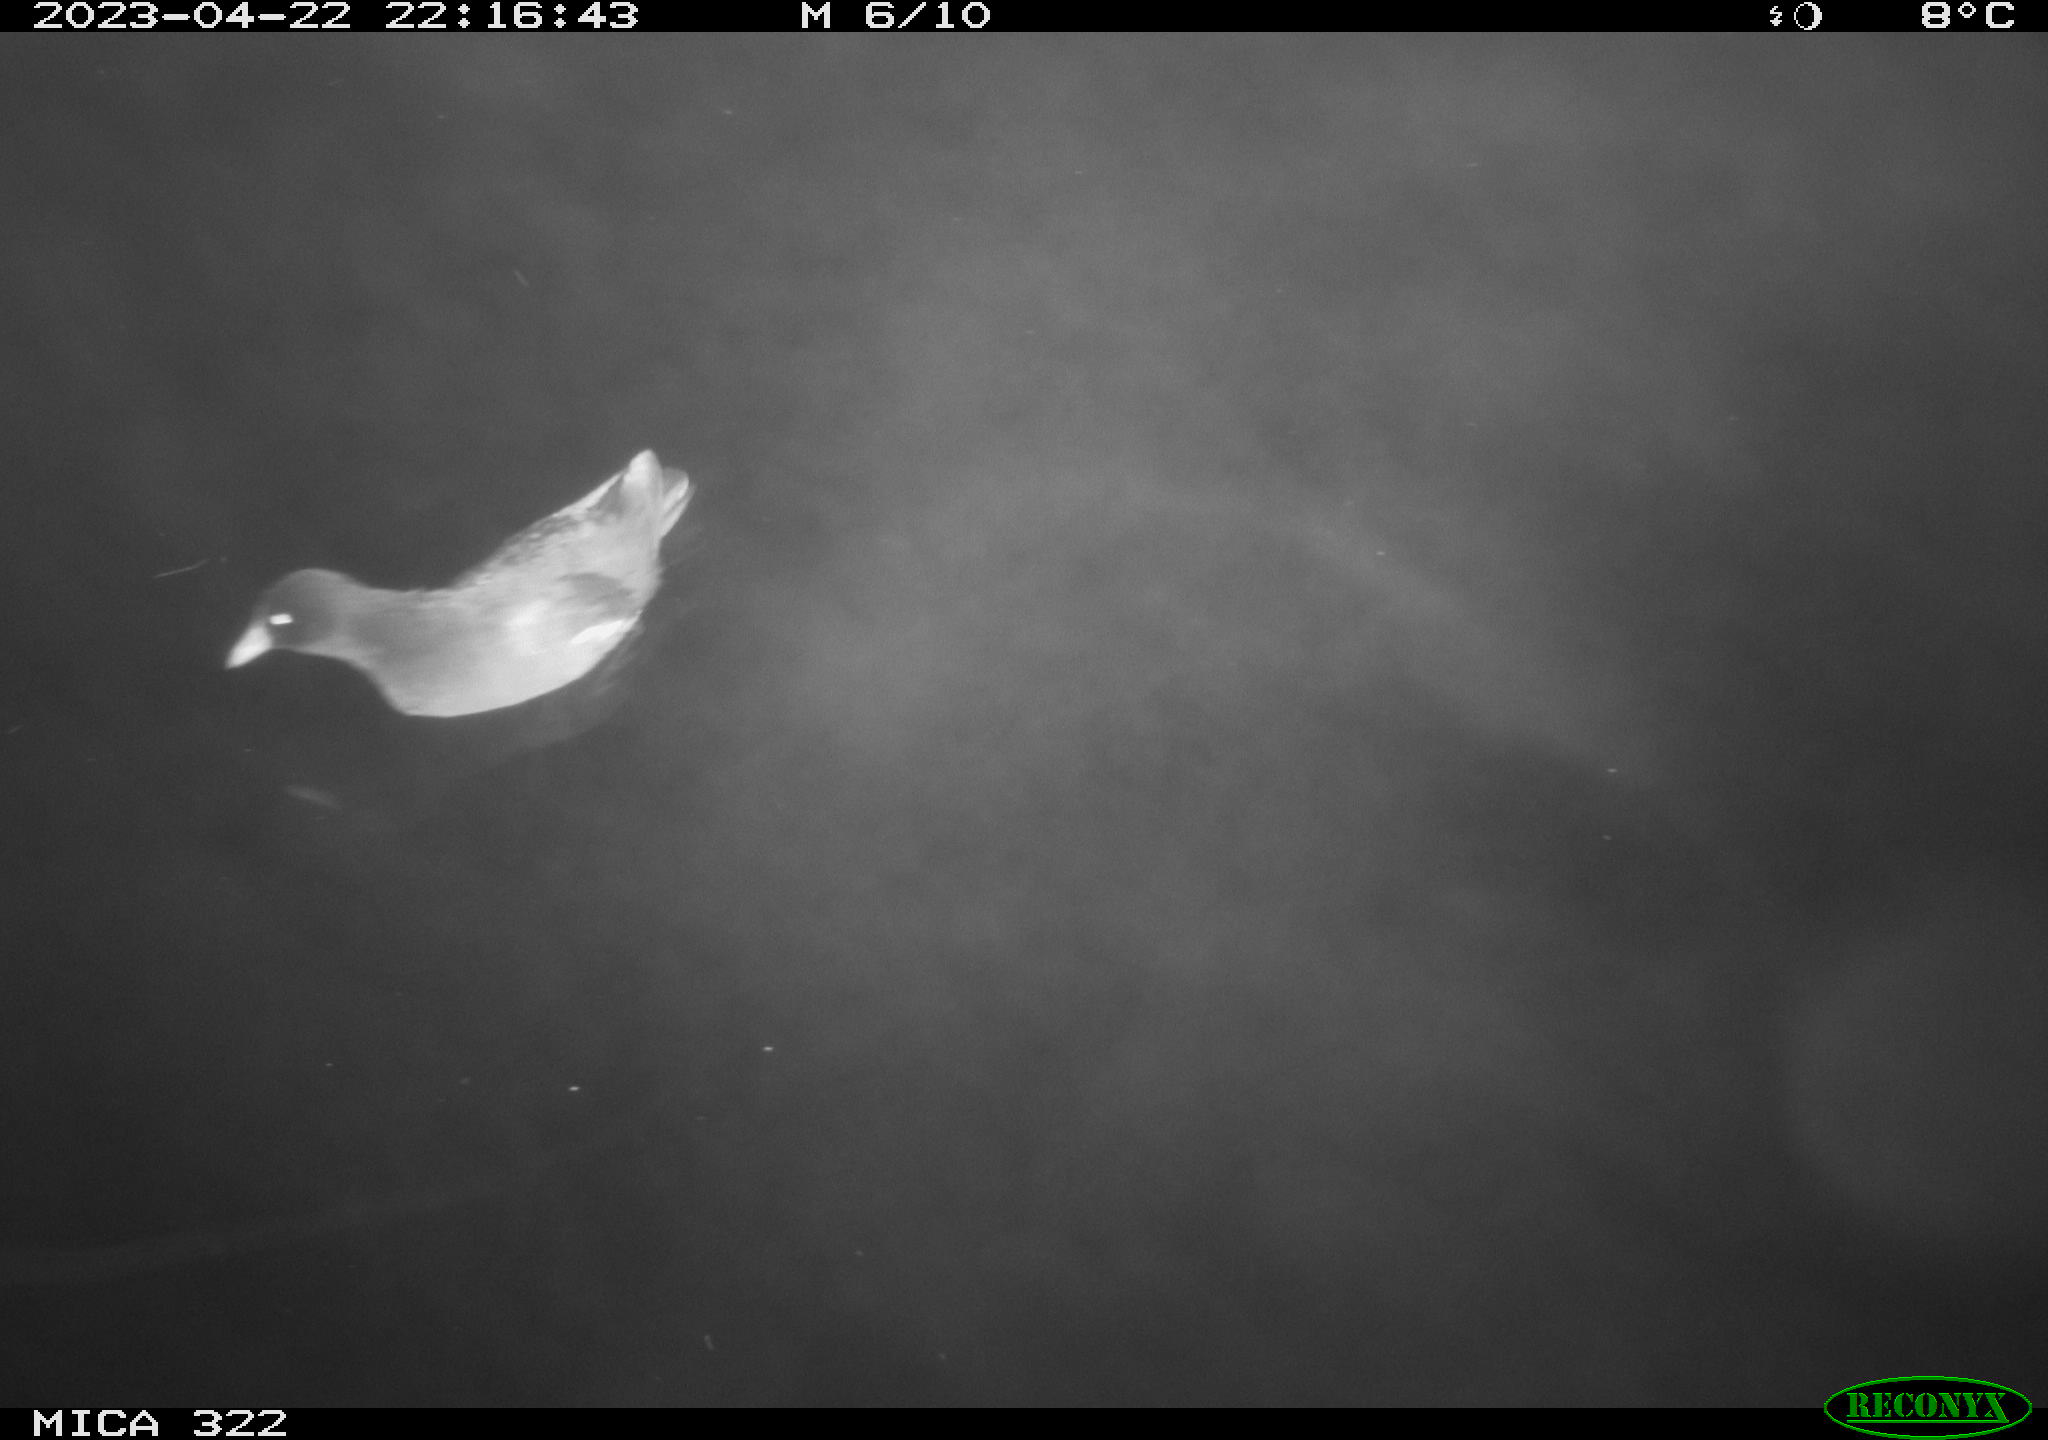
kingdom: Animalia
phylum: Chordata
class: Aves
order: Gruiformes
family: Rallidae
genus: Gallinula
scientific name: Gallinula chloropus
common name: Common moorhen
